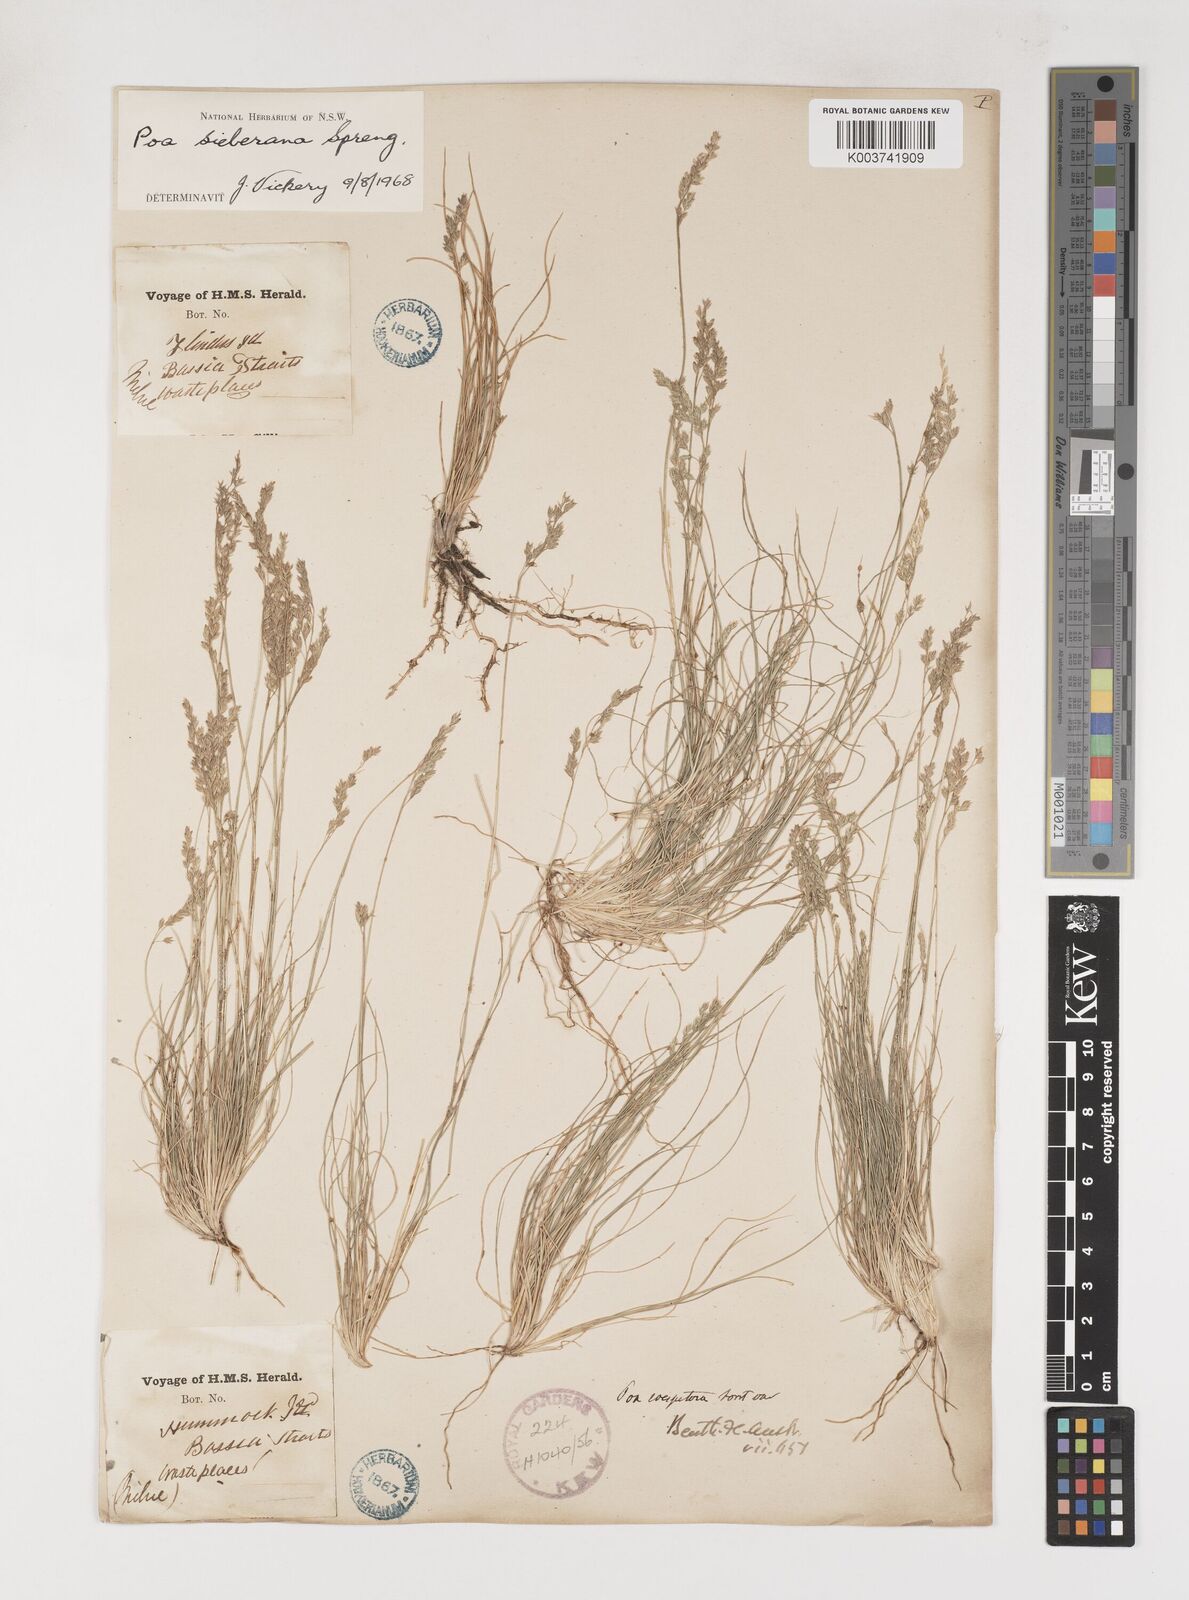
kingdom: Plantae
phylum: Tracheophyta
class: Liliopsida
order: Poales
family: Poaceae
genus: Poa
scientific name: Poa sieberiana
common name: Tussock poa
